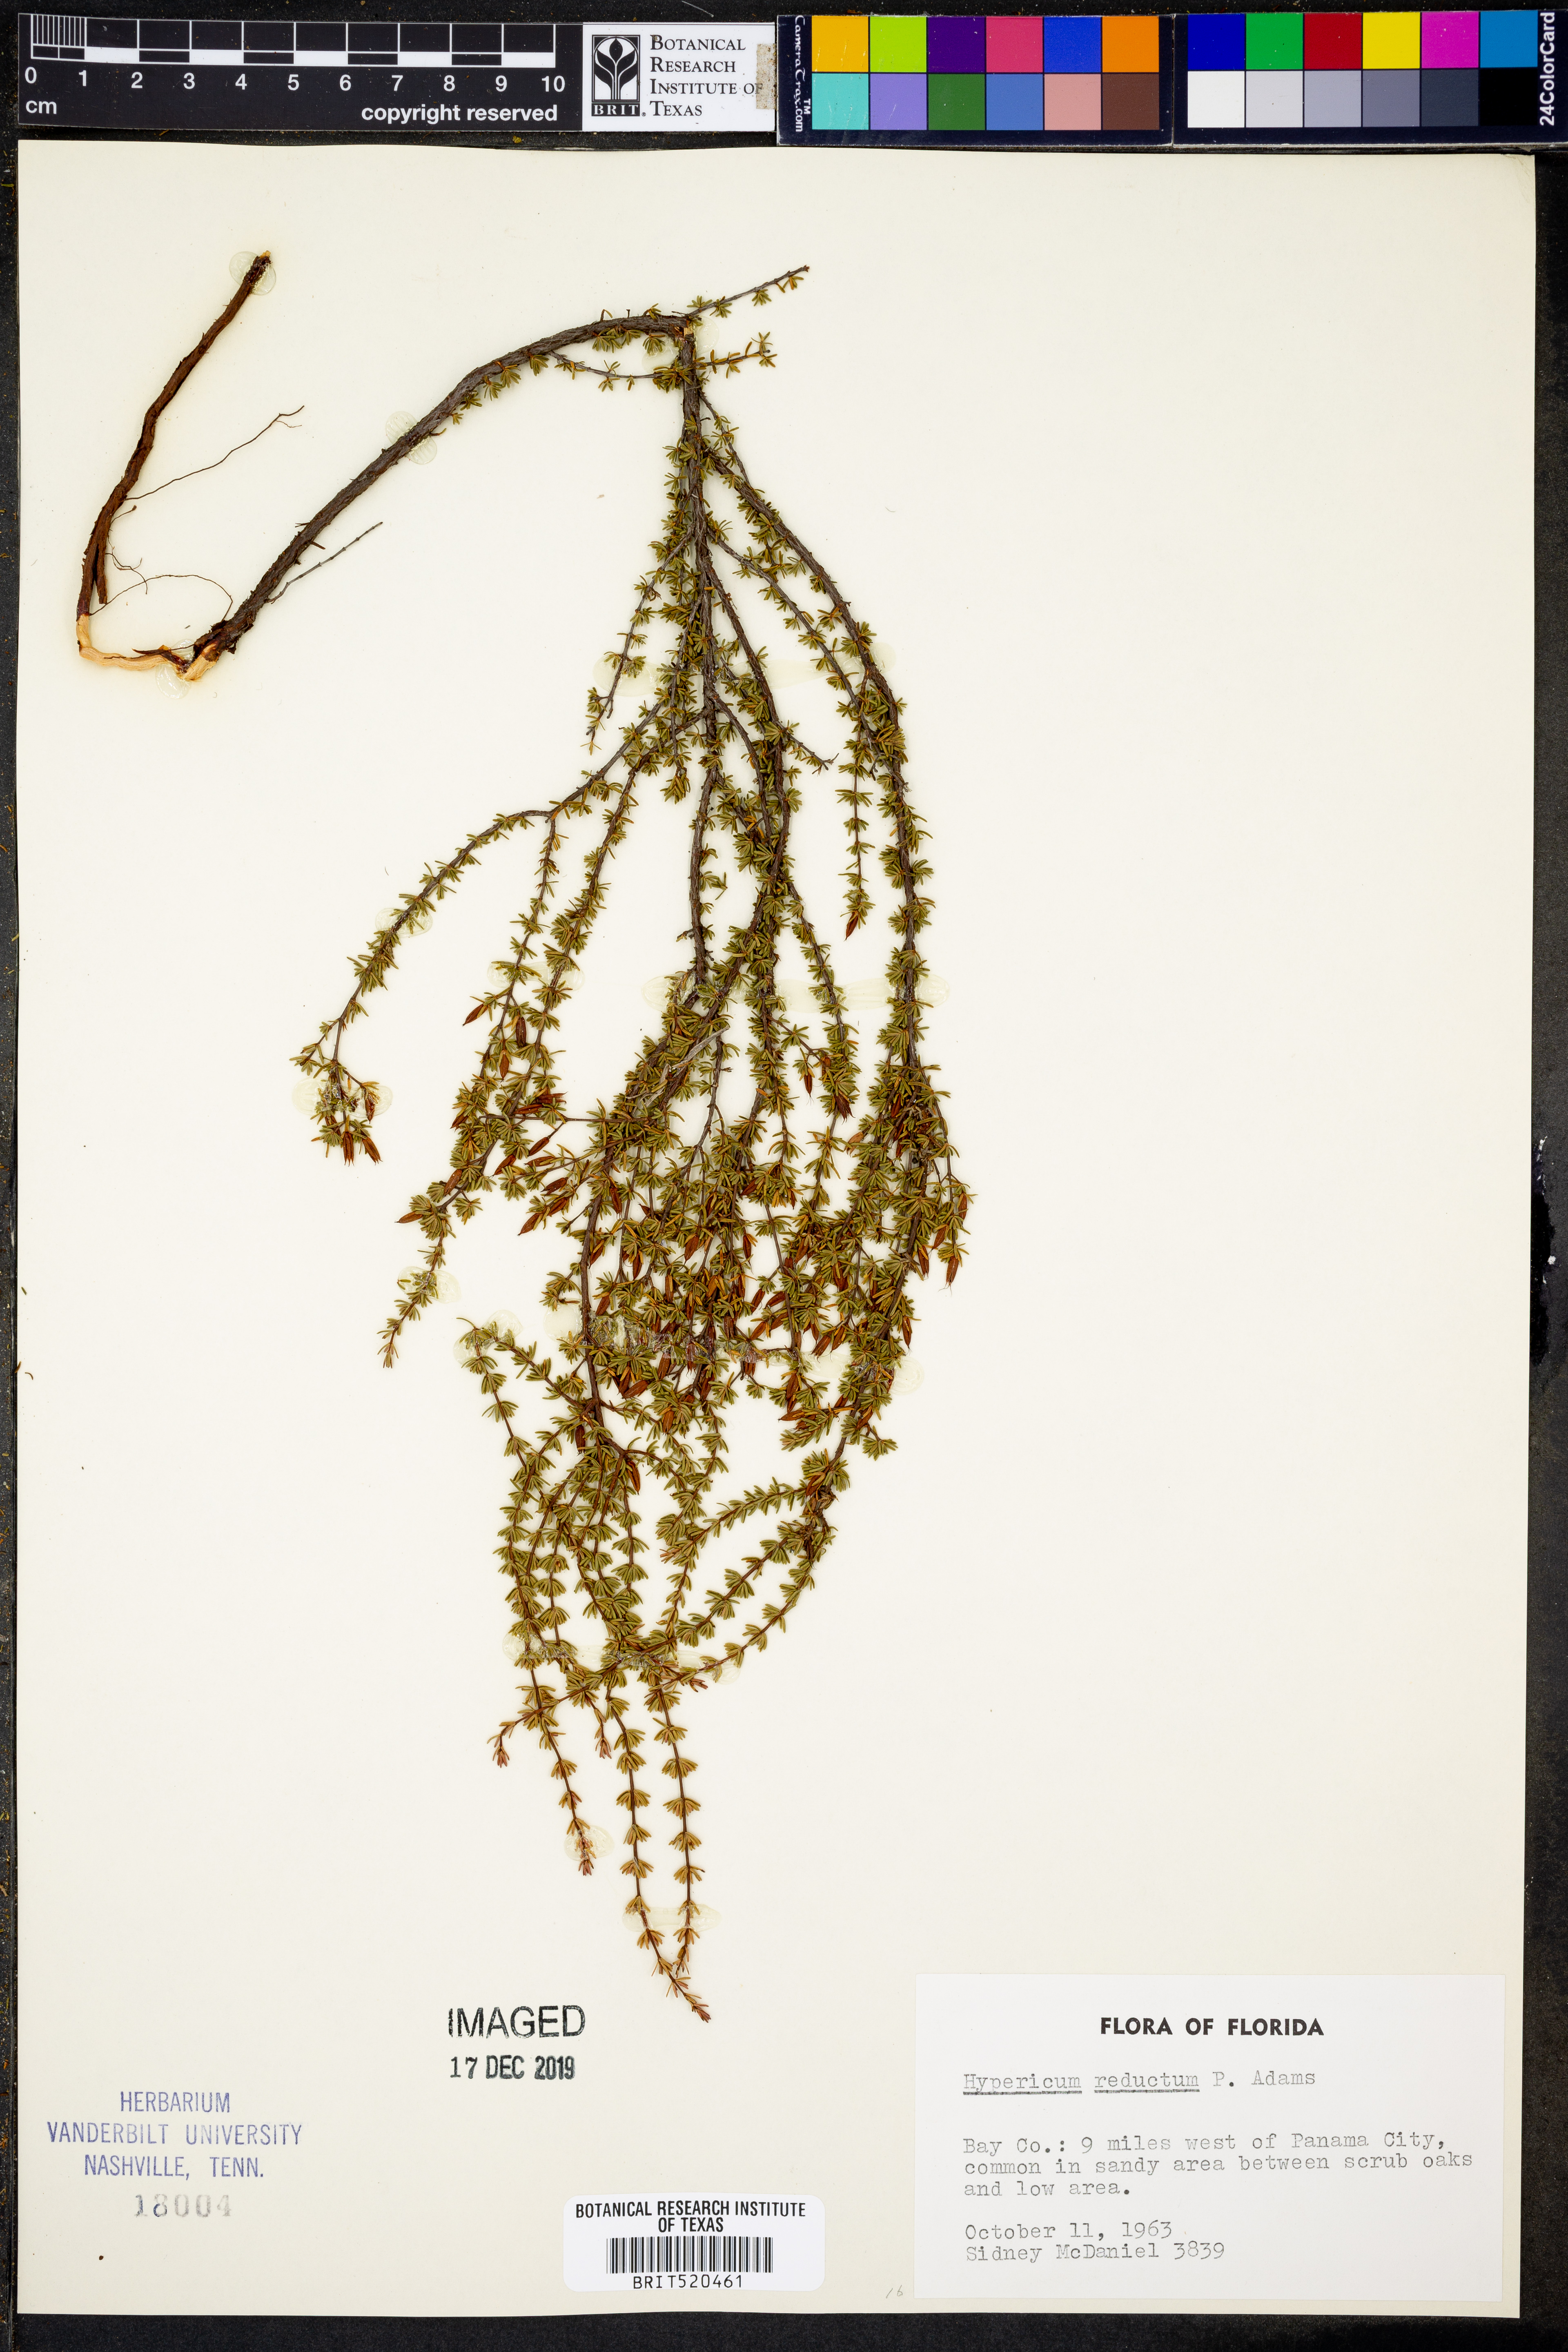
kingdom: Plantae
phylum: Tracheophyta
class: Magnoliopsida
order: Malpighiales
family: Hypericaceae
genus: Hypericum
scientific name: Hypericum tenuifolium
